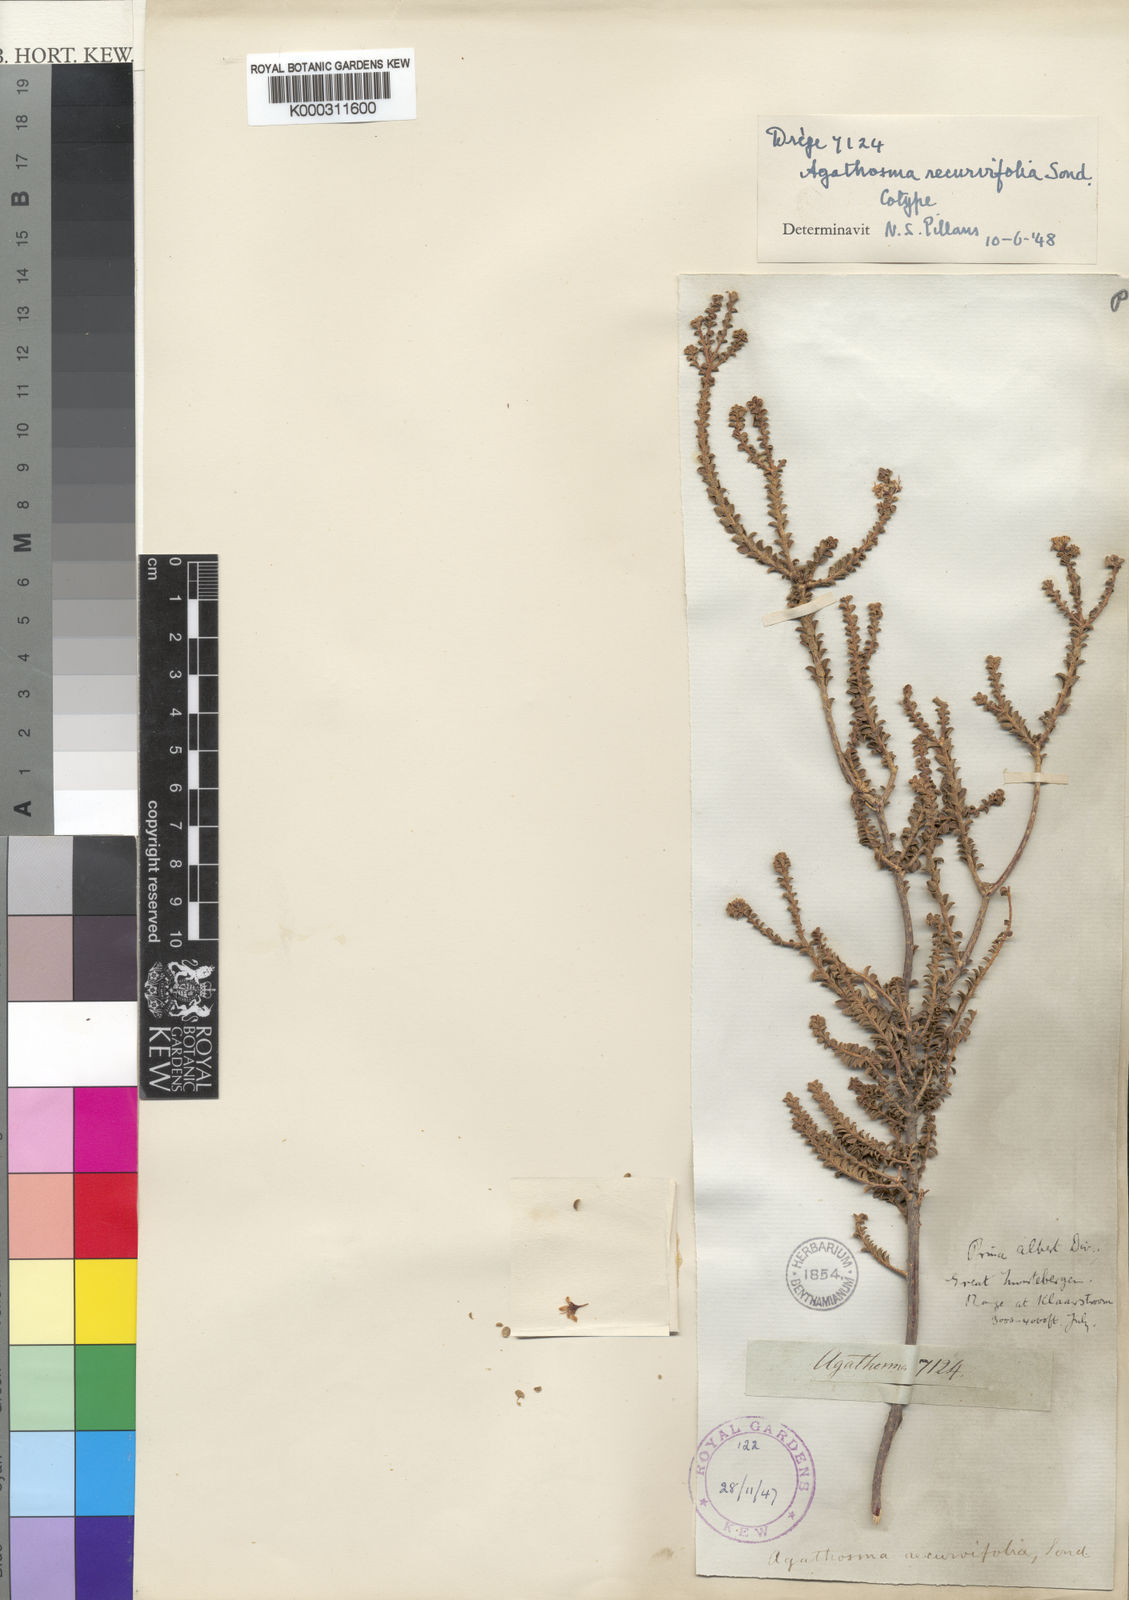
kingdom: Plantae
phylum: Tracheophyta
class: Magnoliopsida
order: Sapindales
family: Rutaceae
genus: Agathosma
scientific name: Agathosma recurvifolia
